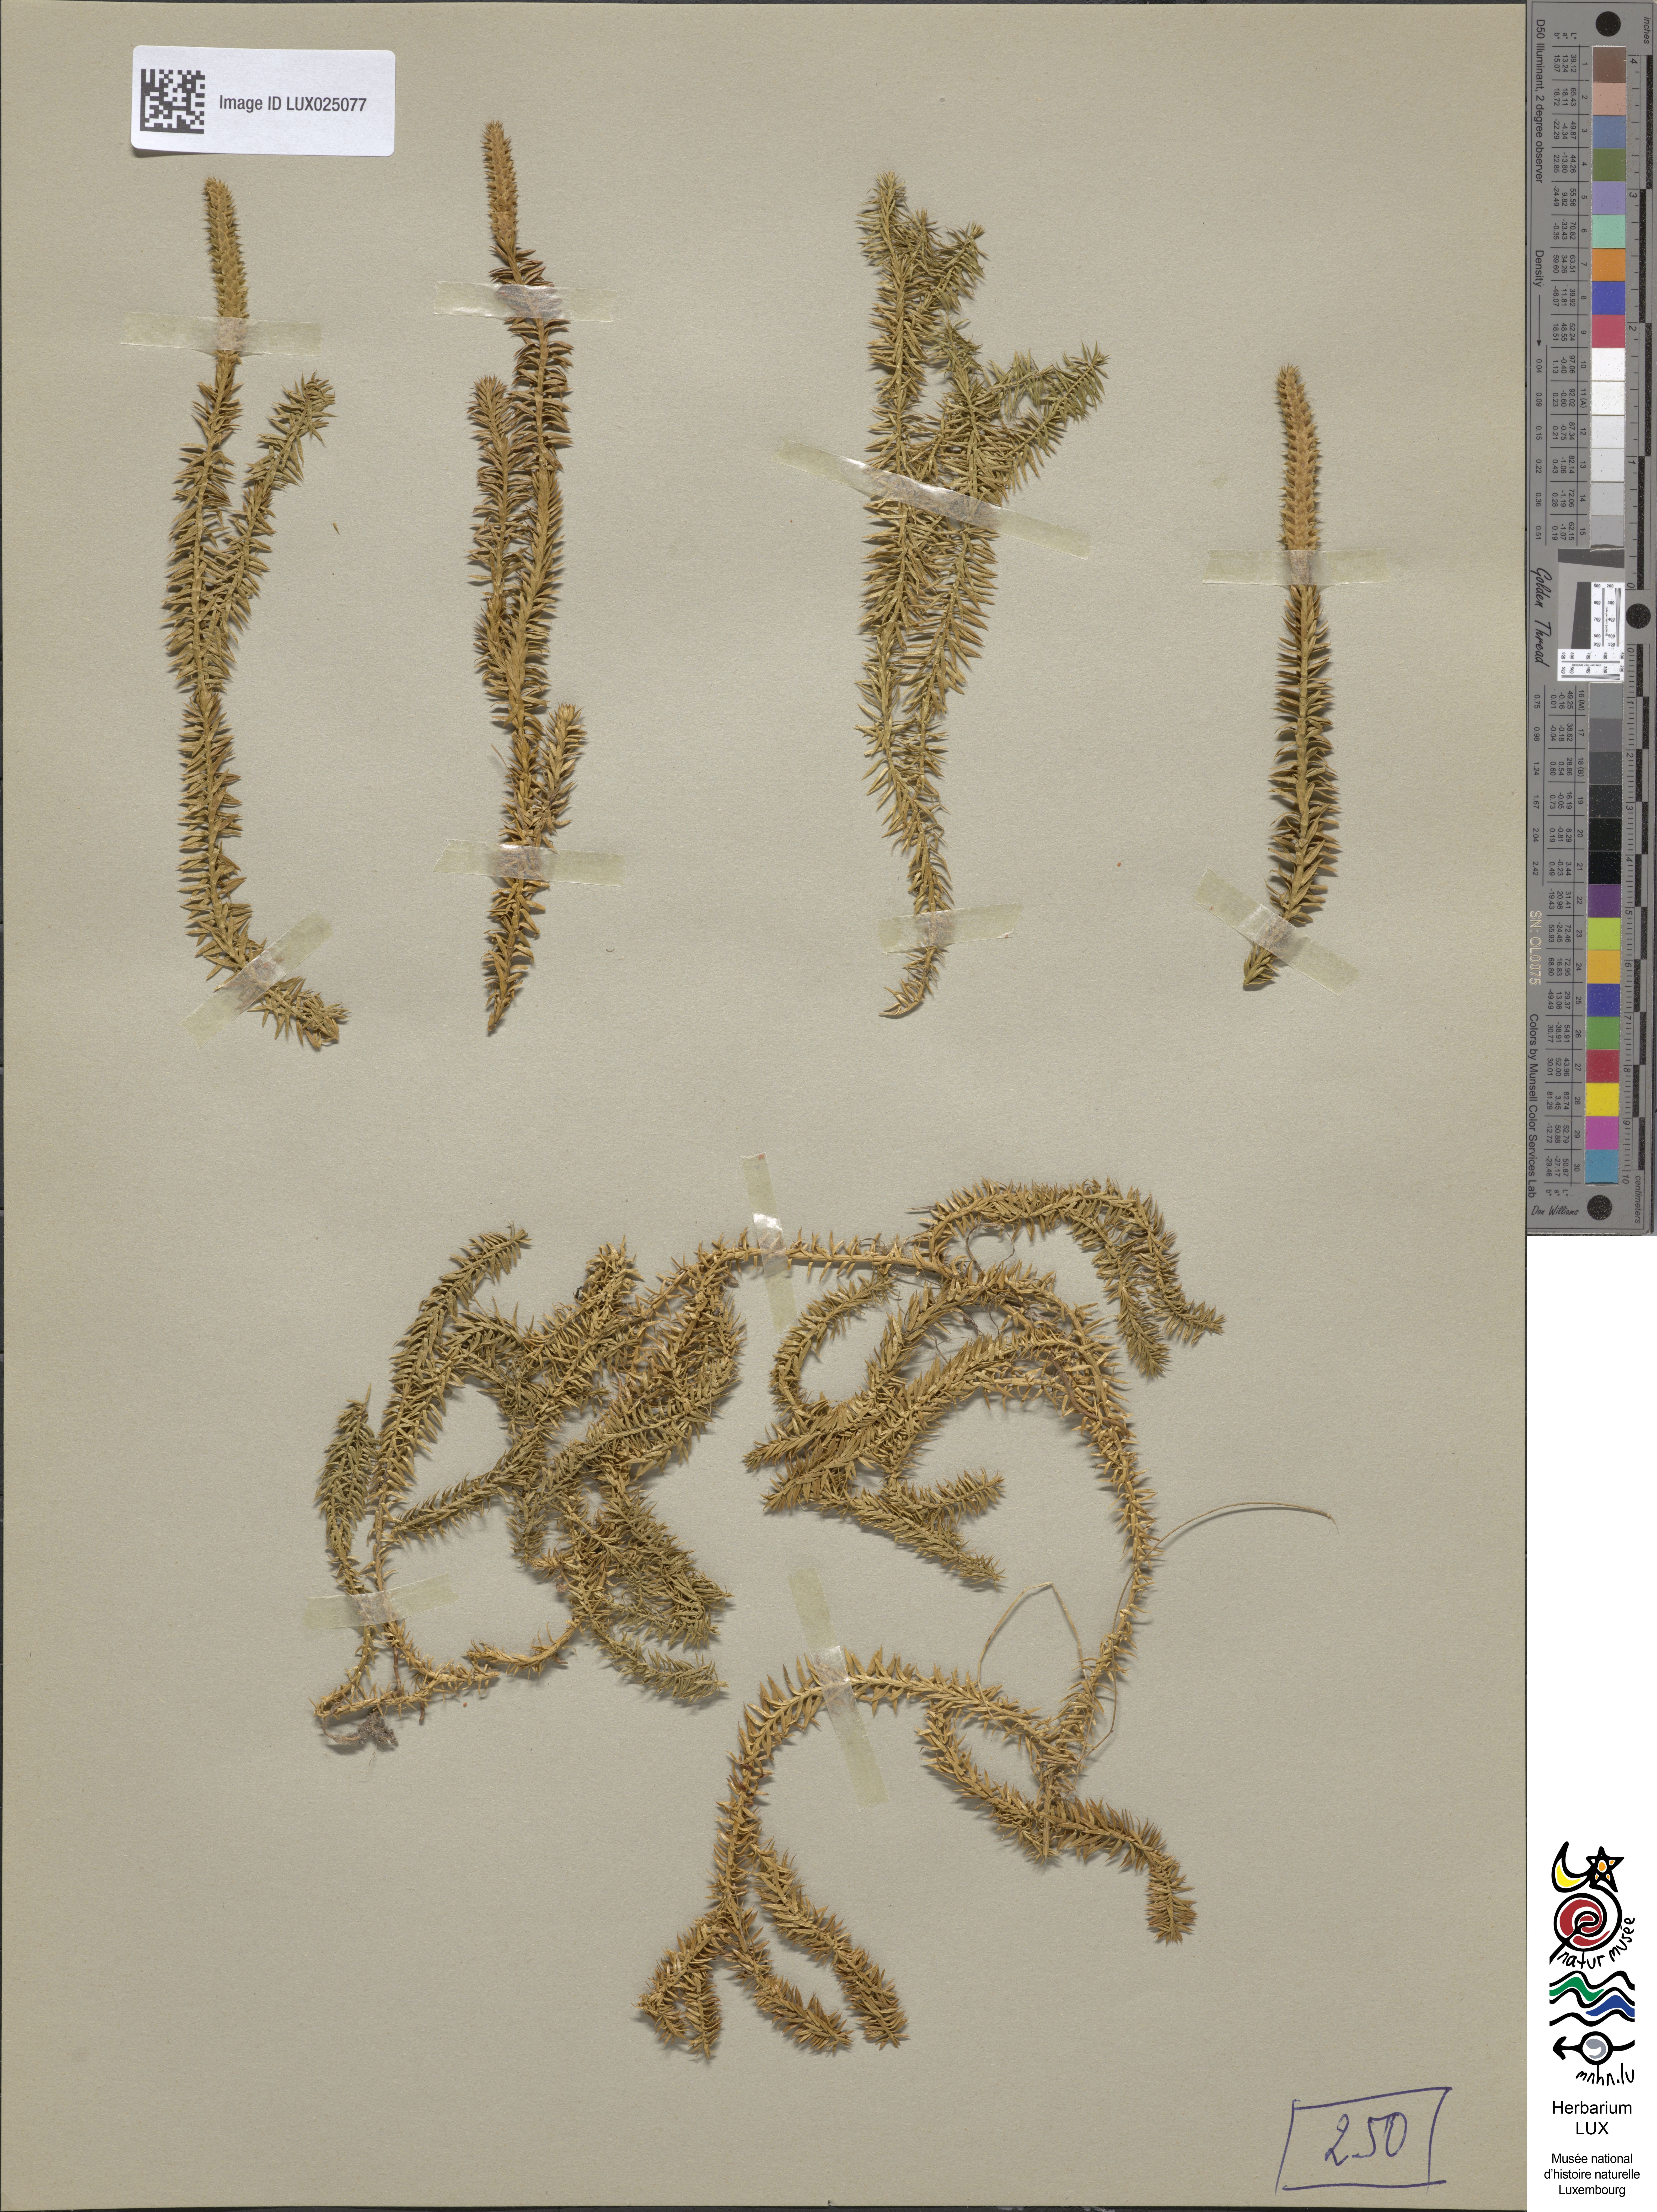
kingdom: Plantae
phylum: Tracheophyta
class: Lycopodiopsida
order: Lycopodiales
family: Lycopodiaceae
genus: Spinulum
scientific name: Spinulum annotinum
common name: Interrupted club-moss
